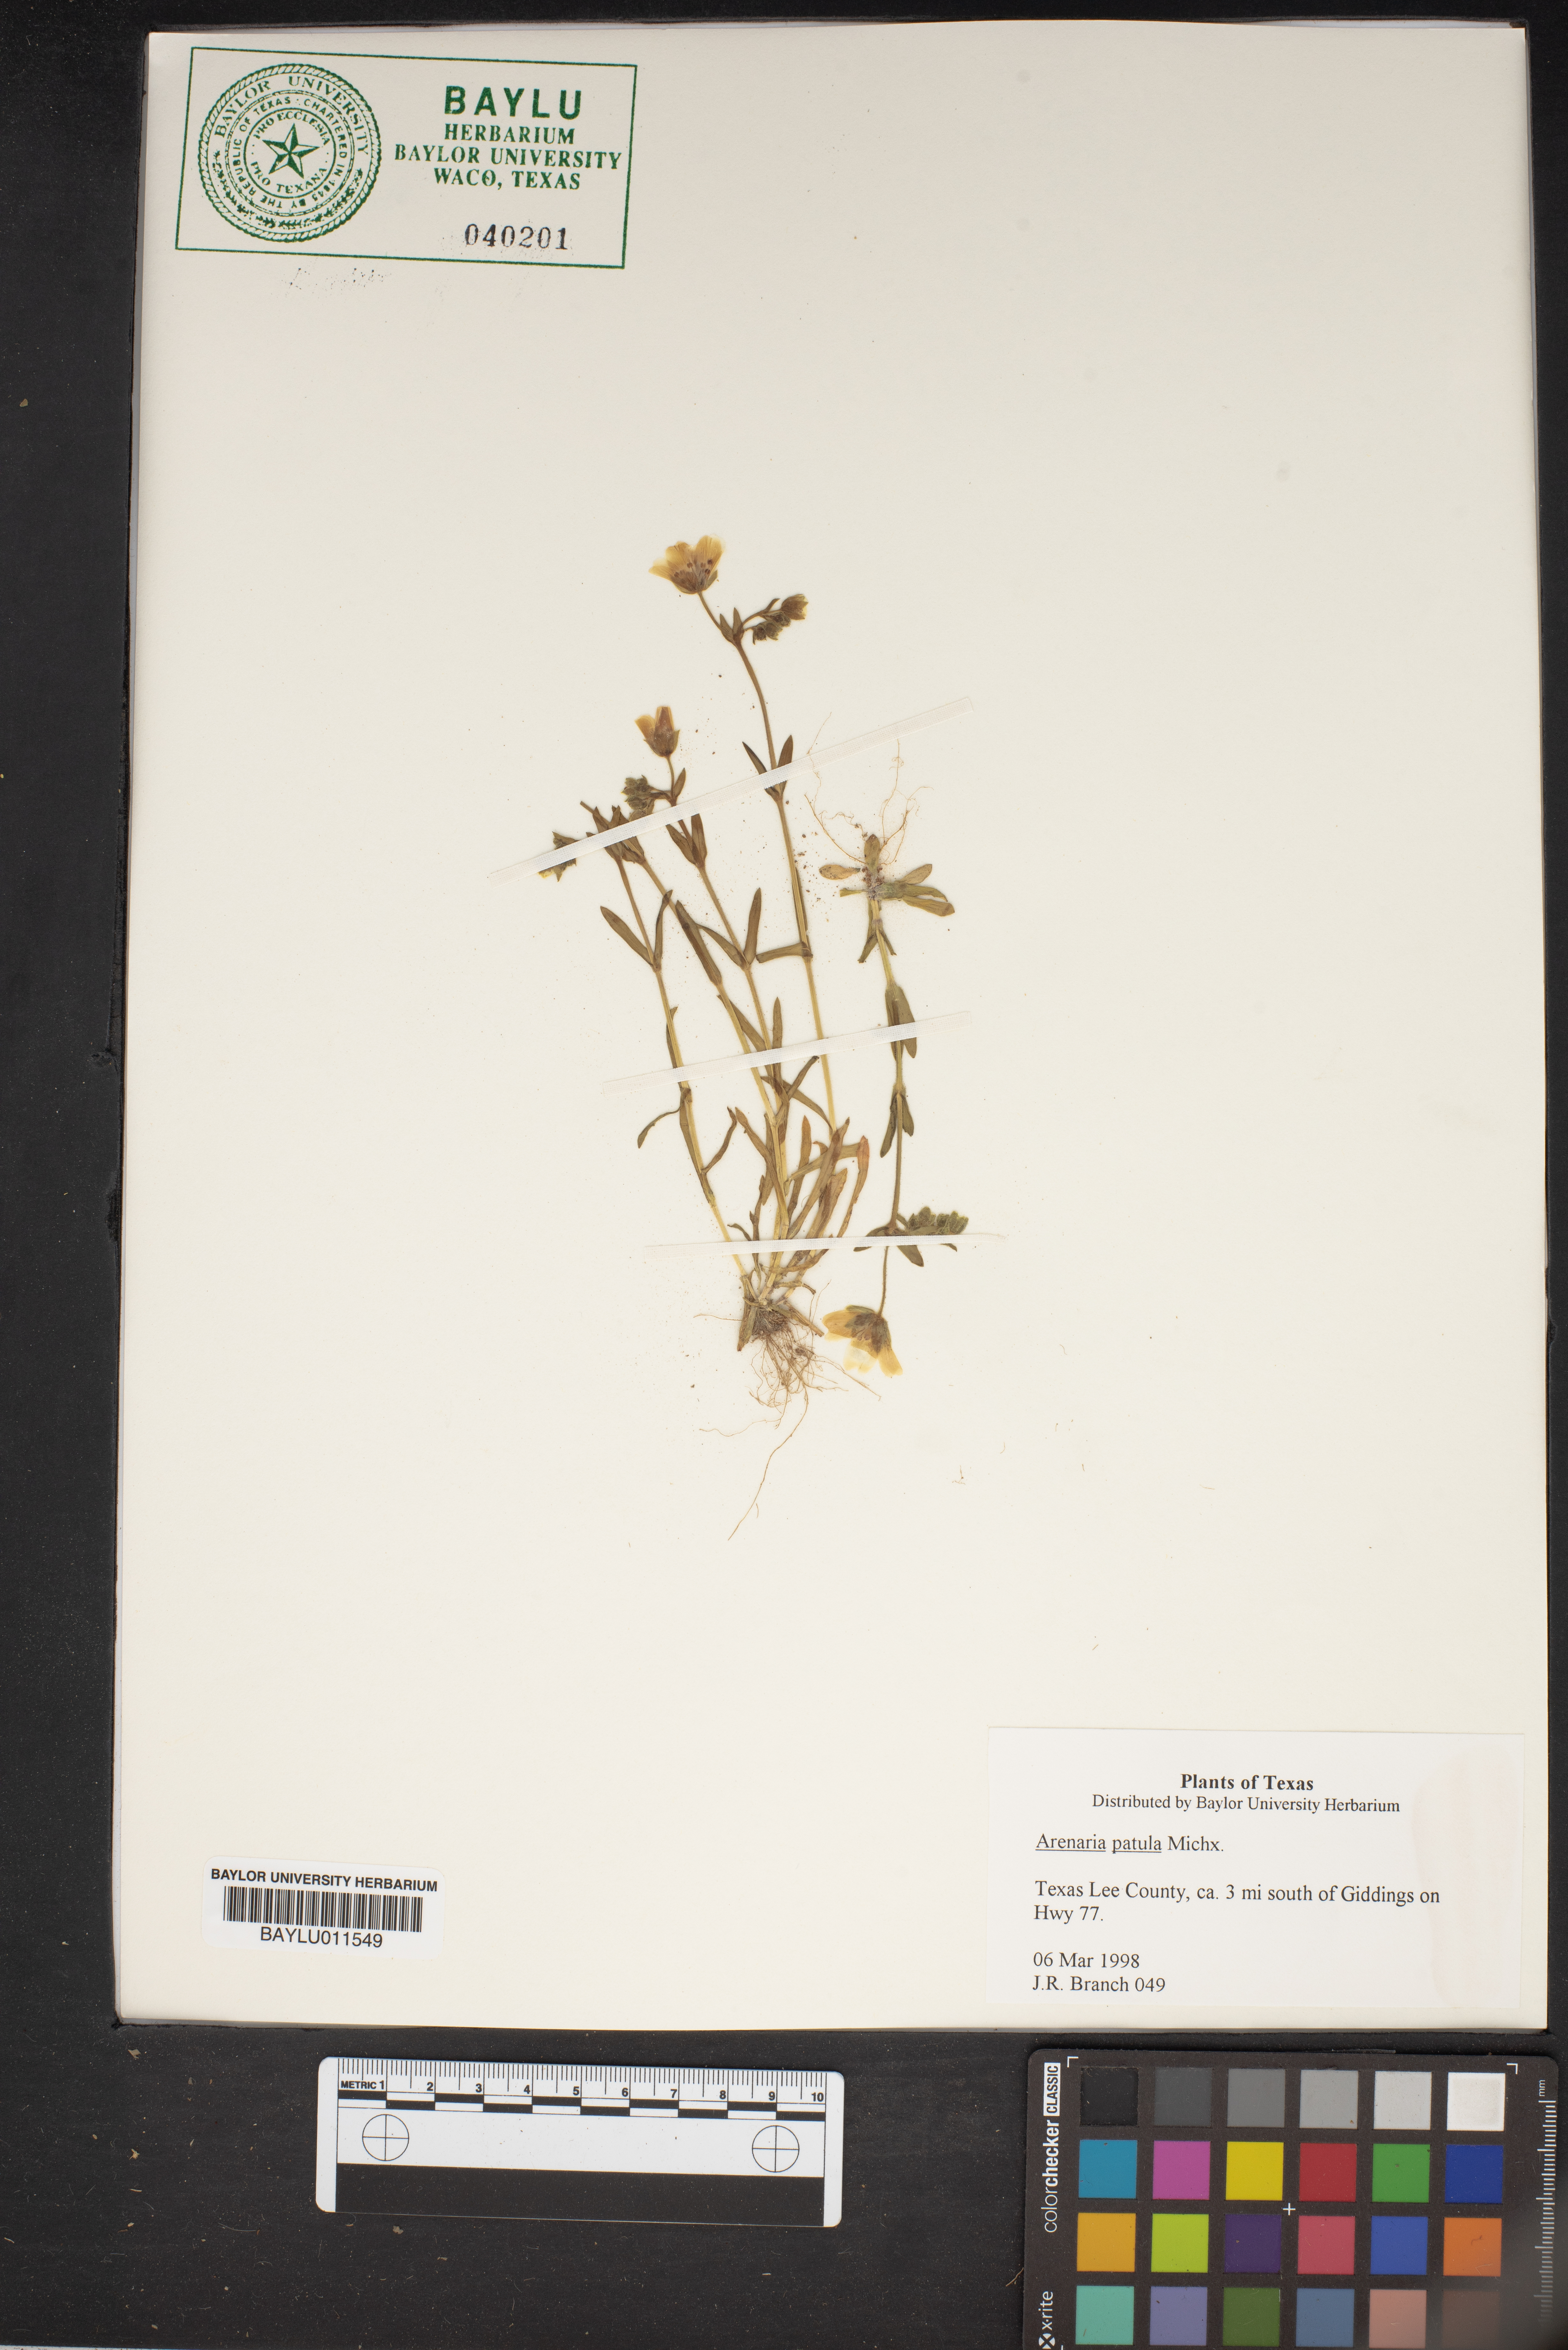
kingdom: Plantae
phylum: Tracheophyta
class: Magnoliopsida
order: Caryophyllales
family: Caryophyllaceae
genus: Mononeuria
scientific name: Mononeuria patula
